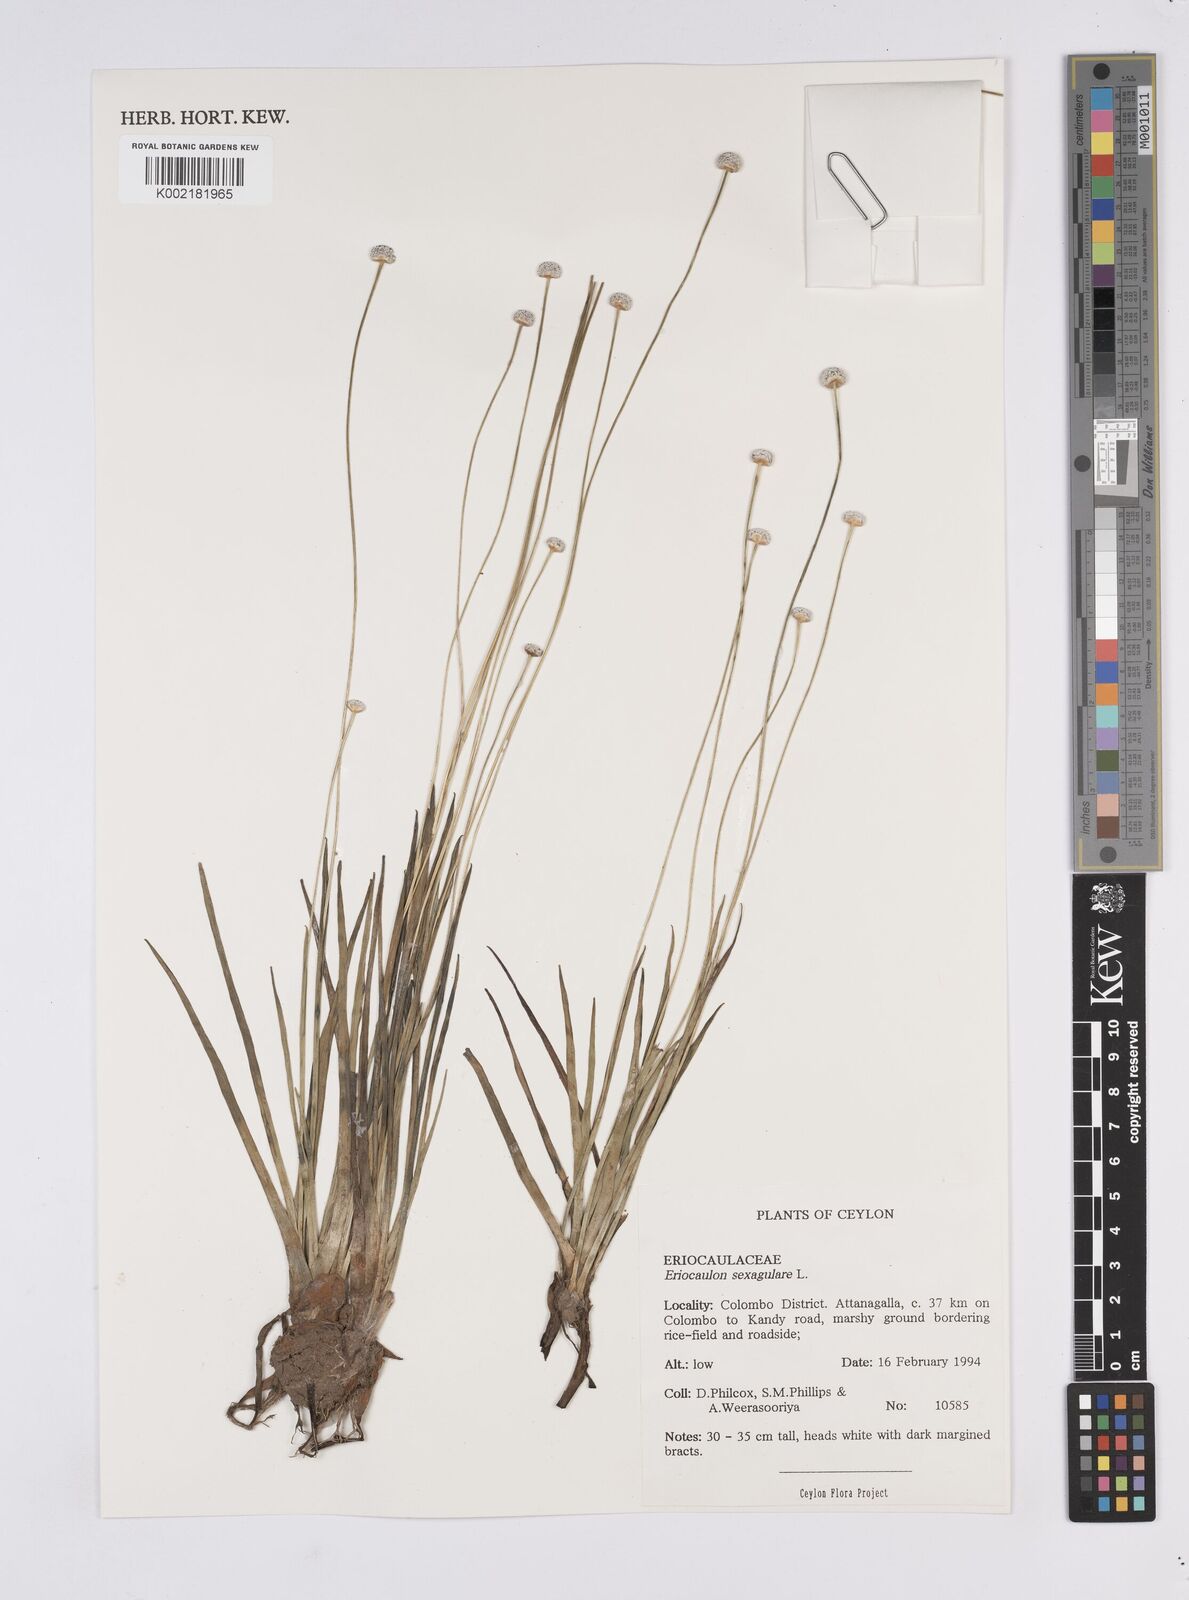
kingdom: Plantae
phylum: Tracheophyta
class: Liliopsida
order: Poales
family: Eriocaulaceae
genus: Eriocaulon
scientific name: Eriocaulon sexangulare
